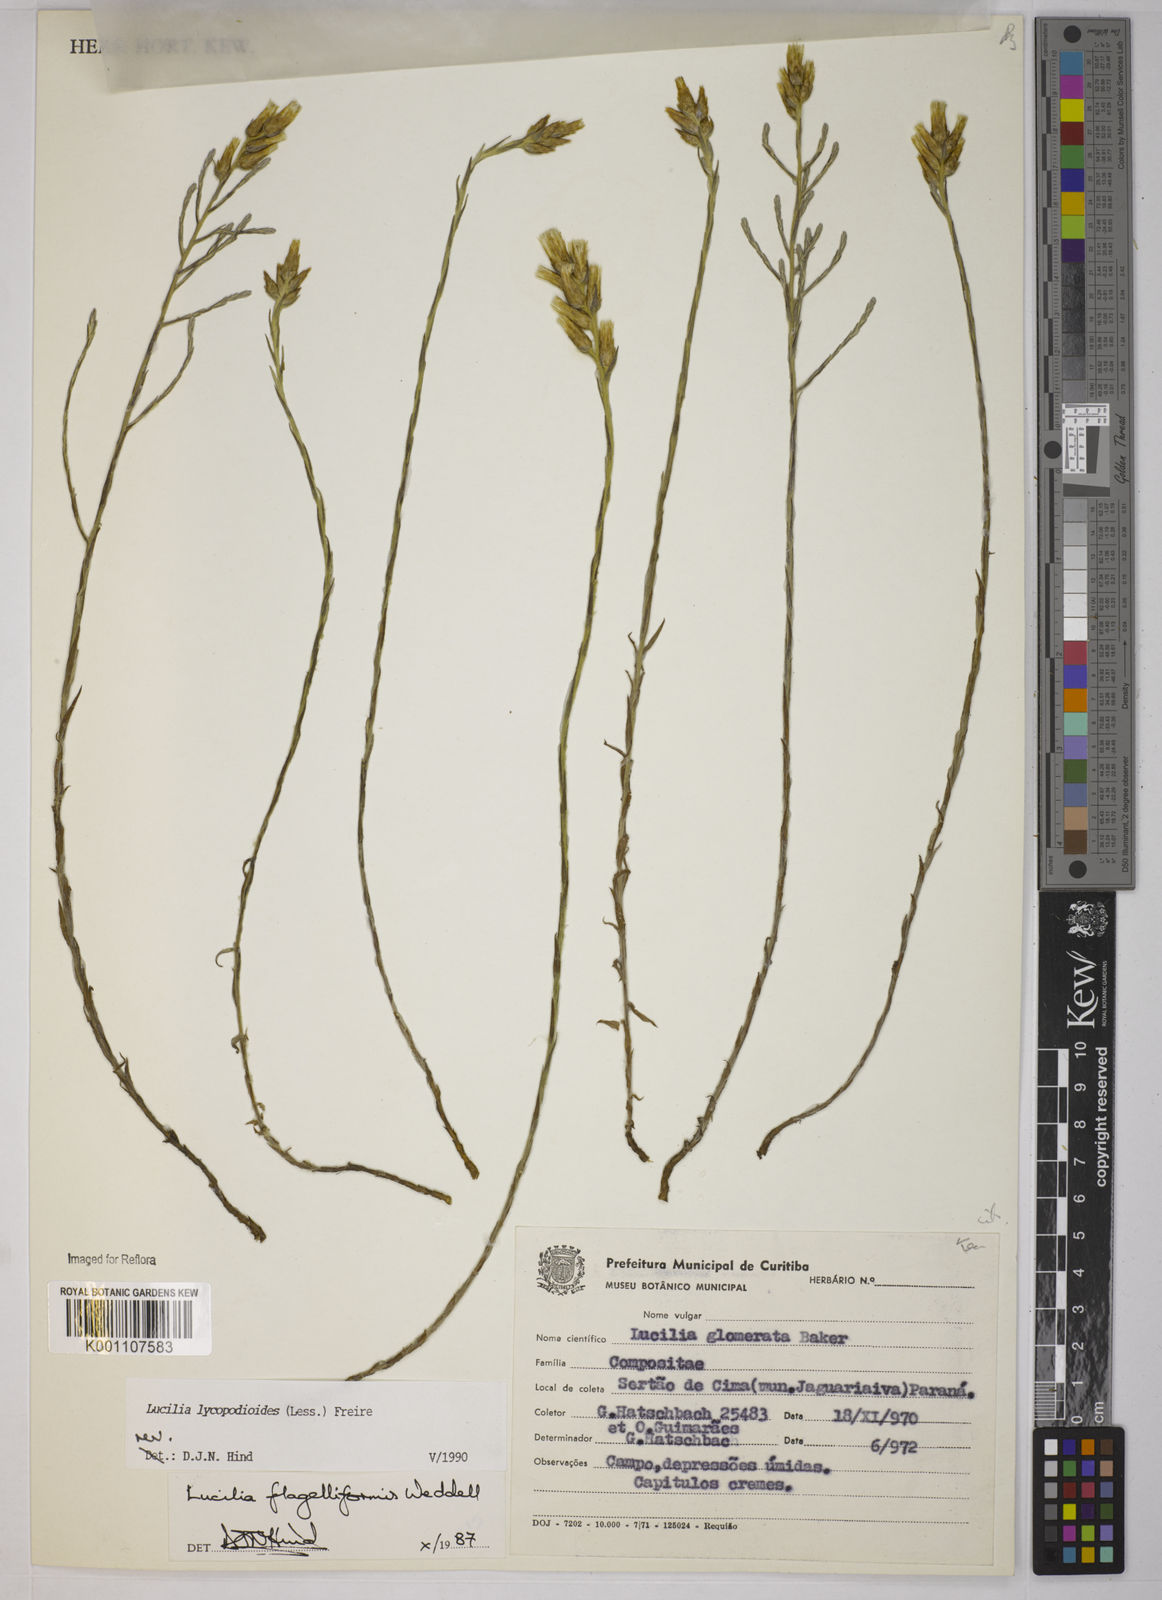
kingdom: Plantae
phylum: Tracheophyta
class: Magnoliopsida
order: Asterales
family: Asteraceae
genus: Lucilia
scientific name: Lucilia lycopodioides
